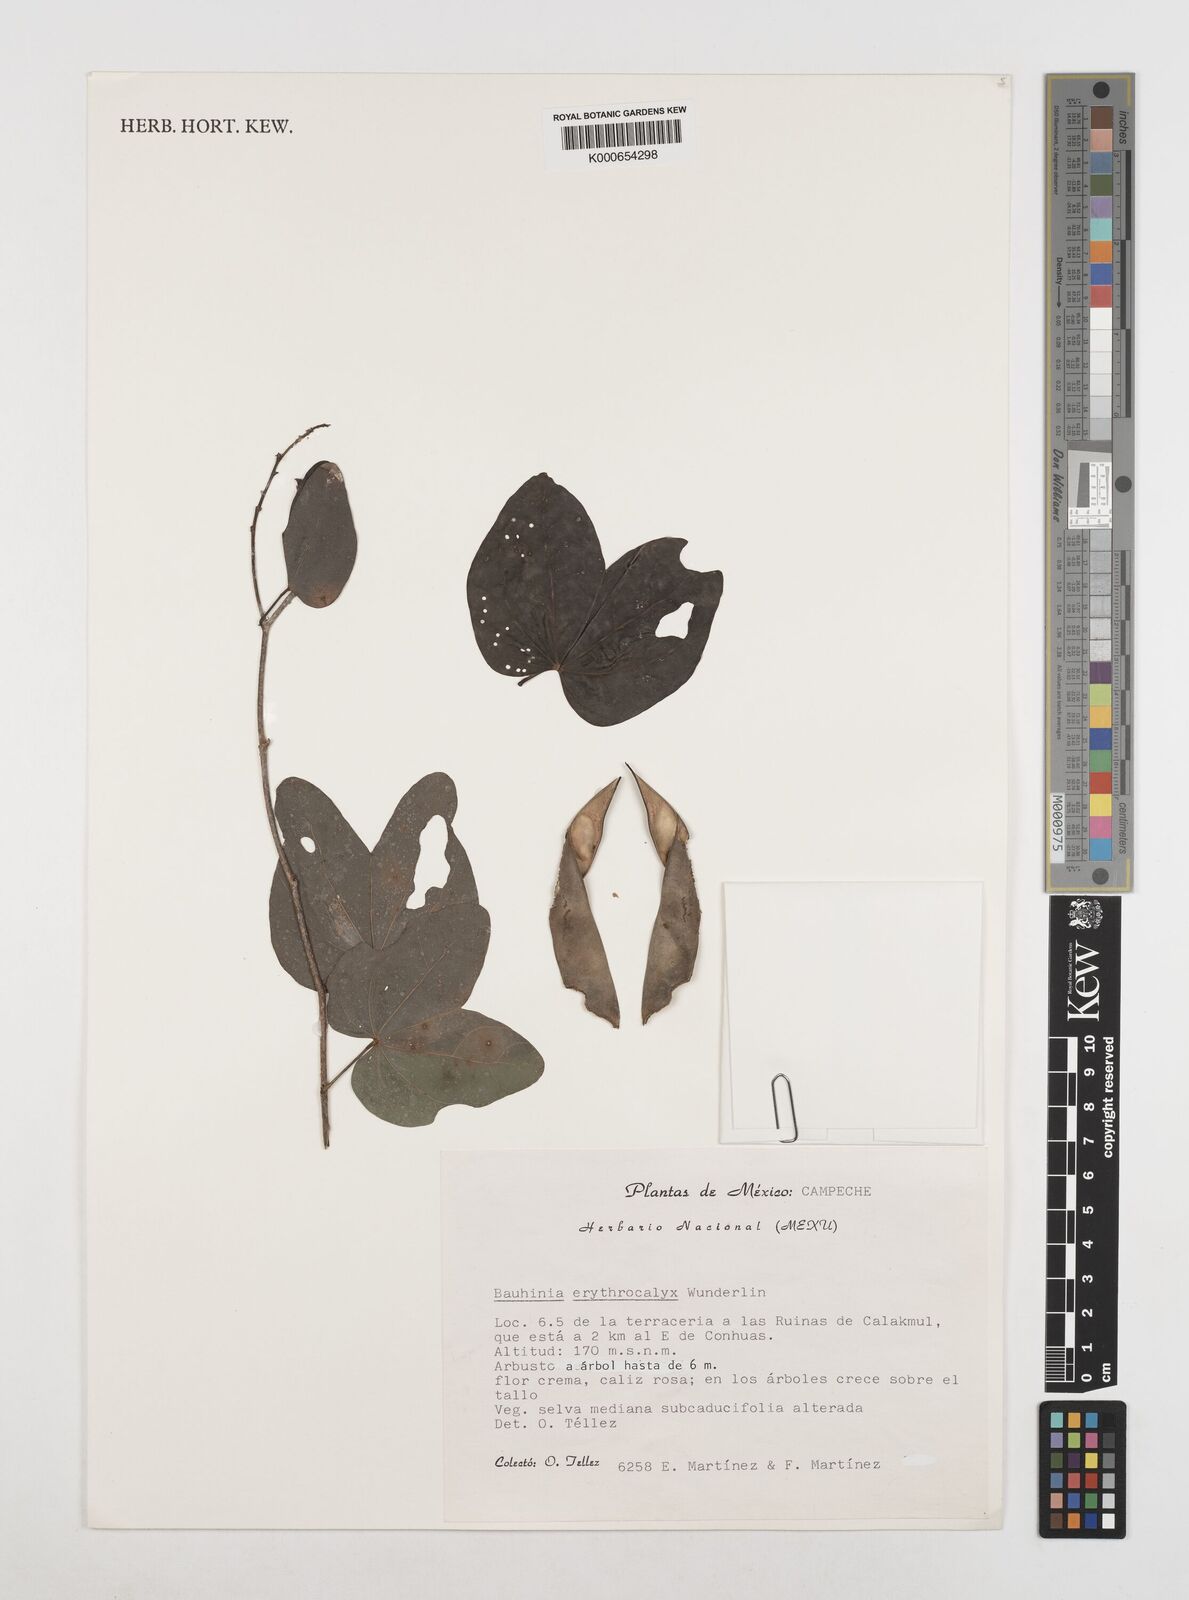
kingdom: Plantae
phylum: Tracheophyta
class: Magnoliopsida
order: Fabales
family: Fabaceae
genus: Bauhinia
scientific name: Bauhinia erythrocalyx
